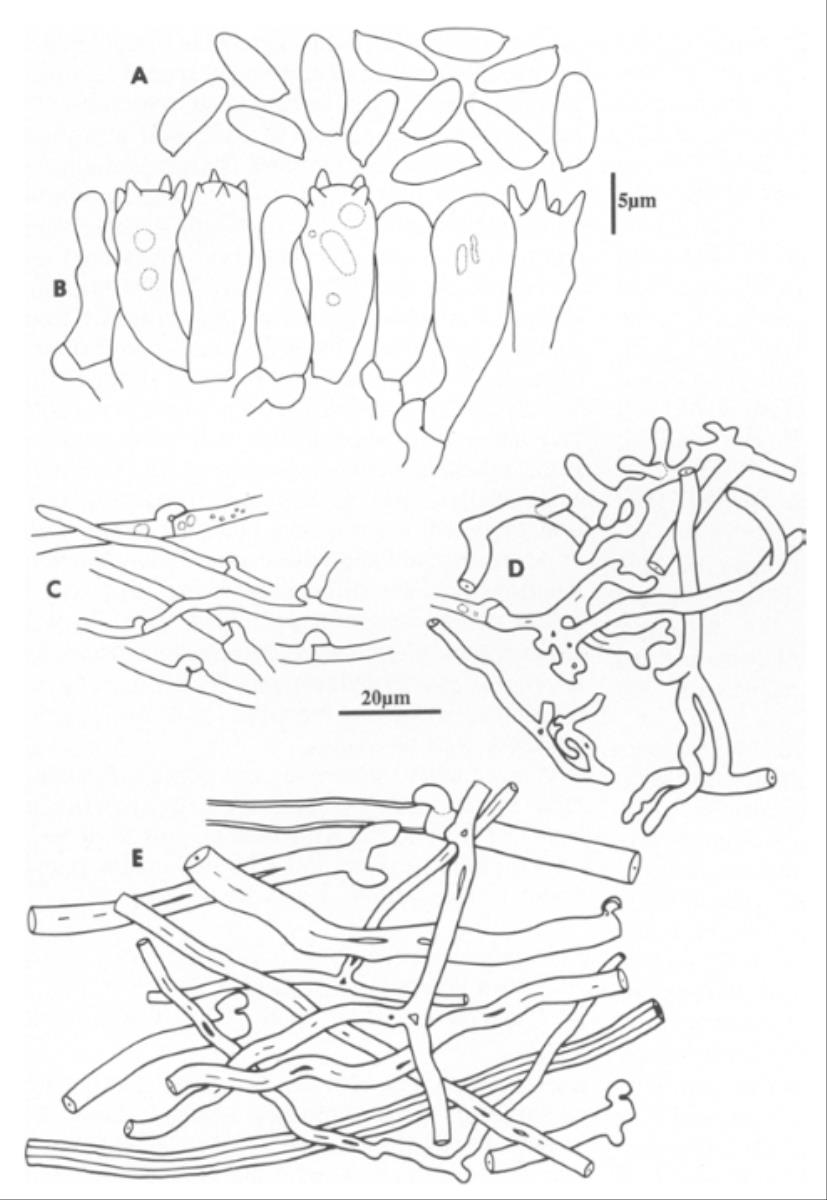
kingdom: Fungi
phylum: Basidiomycota
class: Agaricomycetes
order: Polyporales
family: Polyporaceae
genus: Trametes
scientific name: Trametes nivosa
